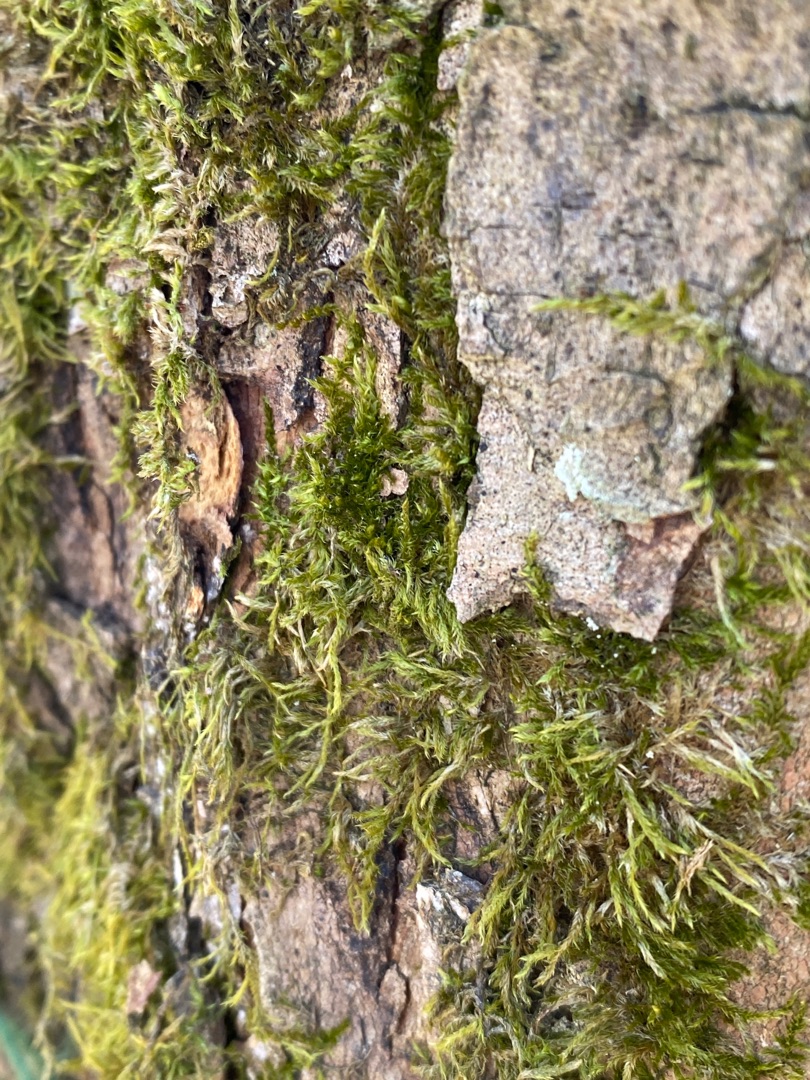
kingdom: Plantae
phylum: Bryophyta
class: Bryopsida
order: Hypnales
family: Hypnaceae
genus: Hypnum
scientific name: Hypnum
